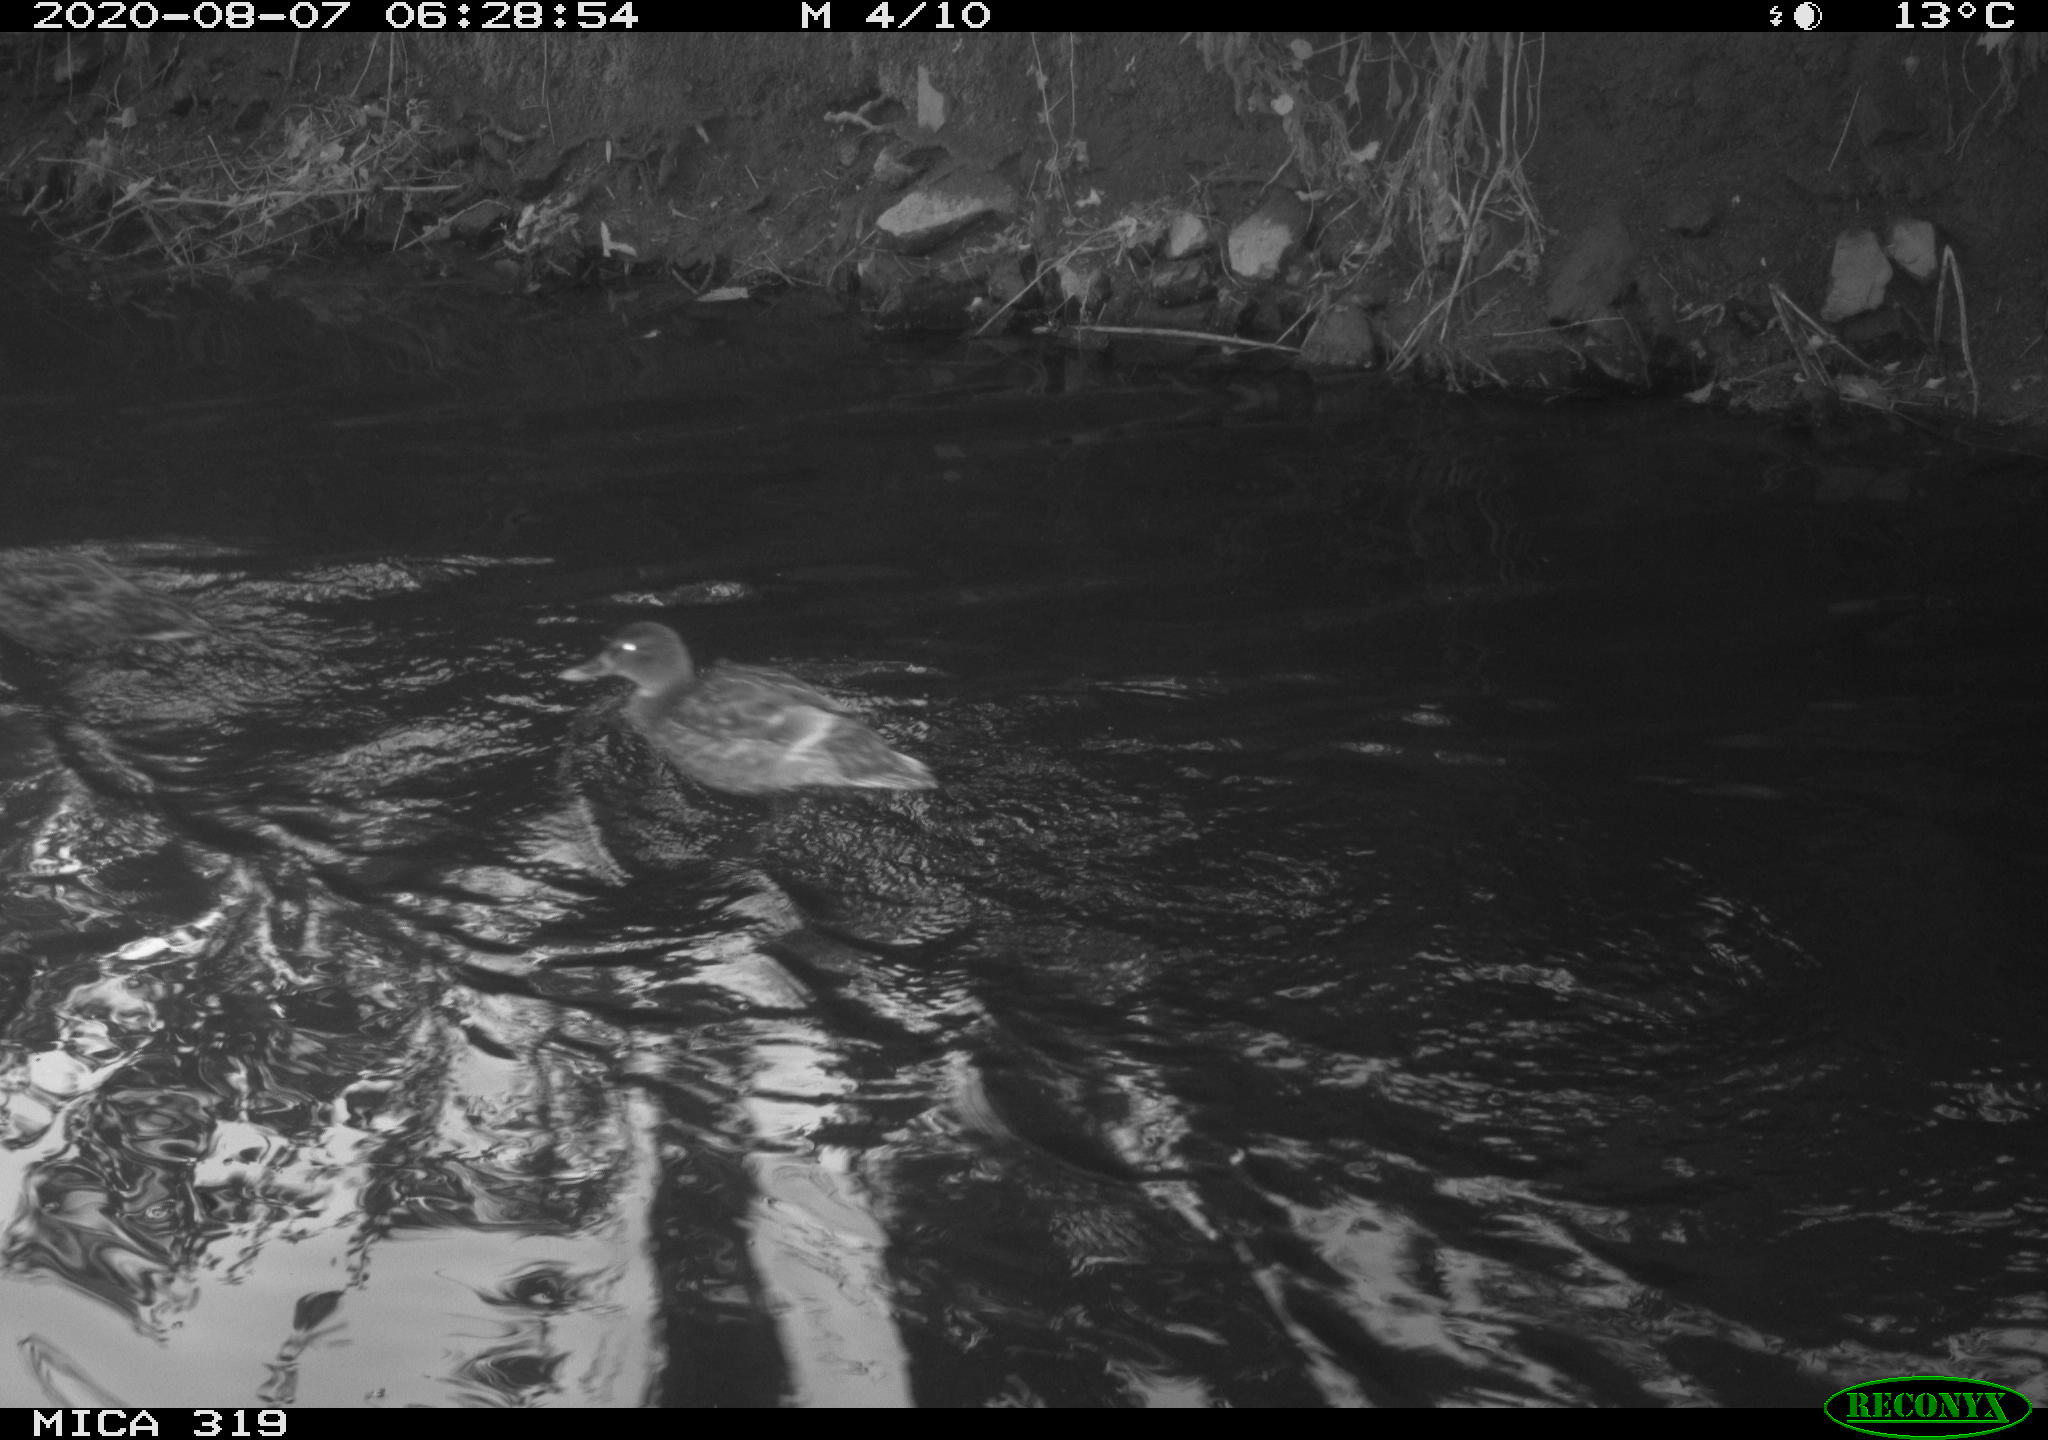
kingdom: Animalia
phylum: Chordata
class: Aves
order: Anseriformes
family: Anatidae
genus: Anas
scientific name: Anas platyrhynchos
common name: Mallard
